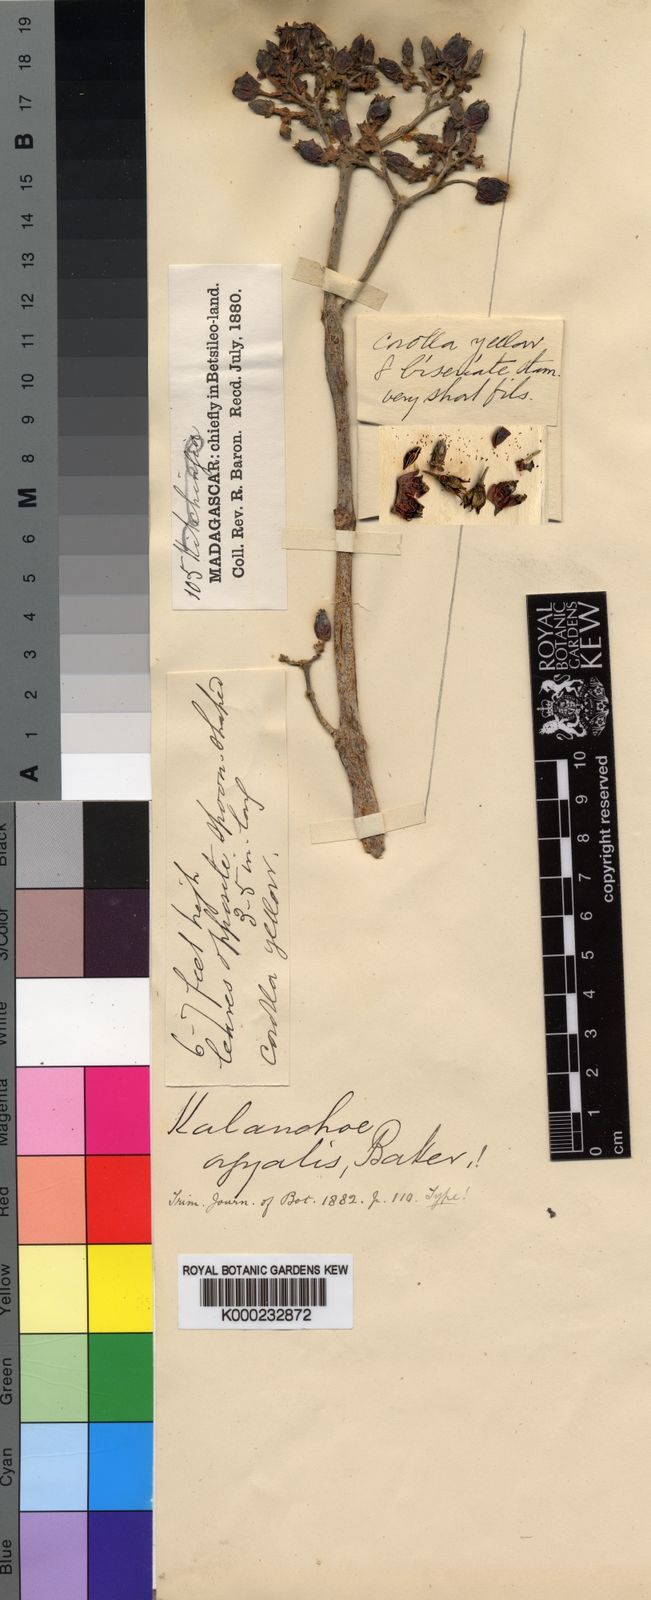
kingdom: Plantae
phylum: Tracheophyta
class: Magnoliopsida
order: Saxifragales
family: Crassulaceae
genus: Kalanchoe
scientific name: Kalanchoe orgyalis
